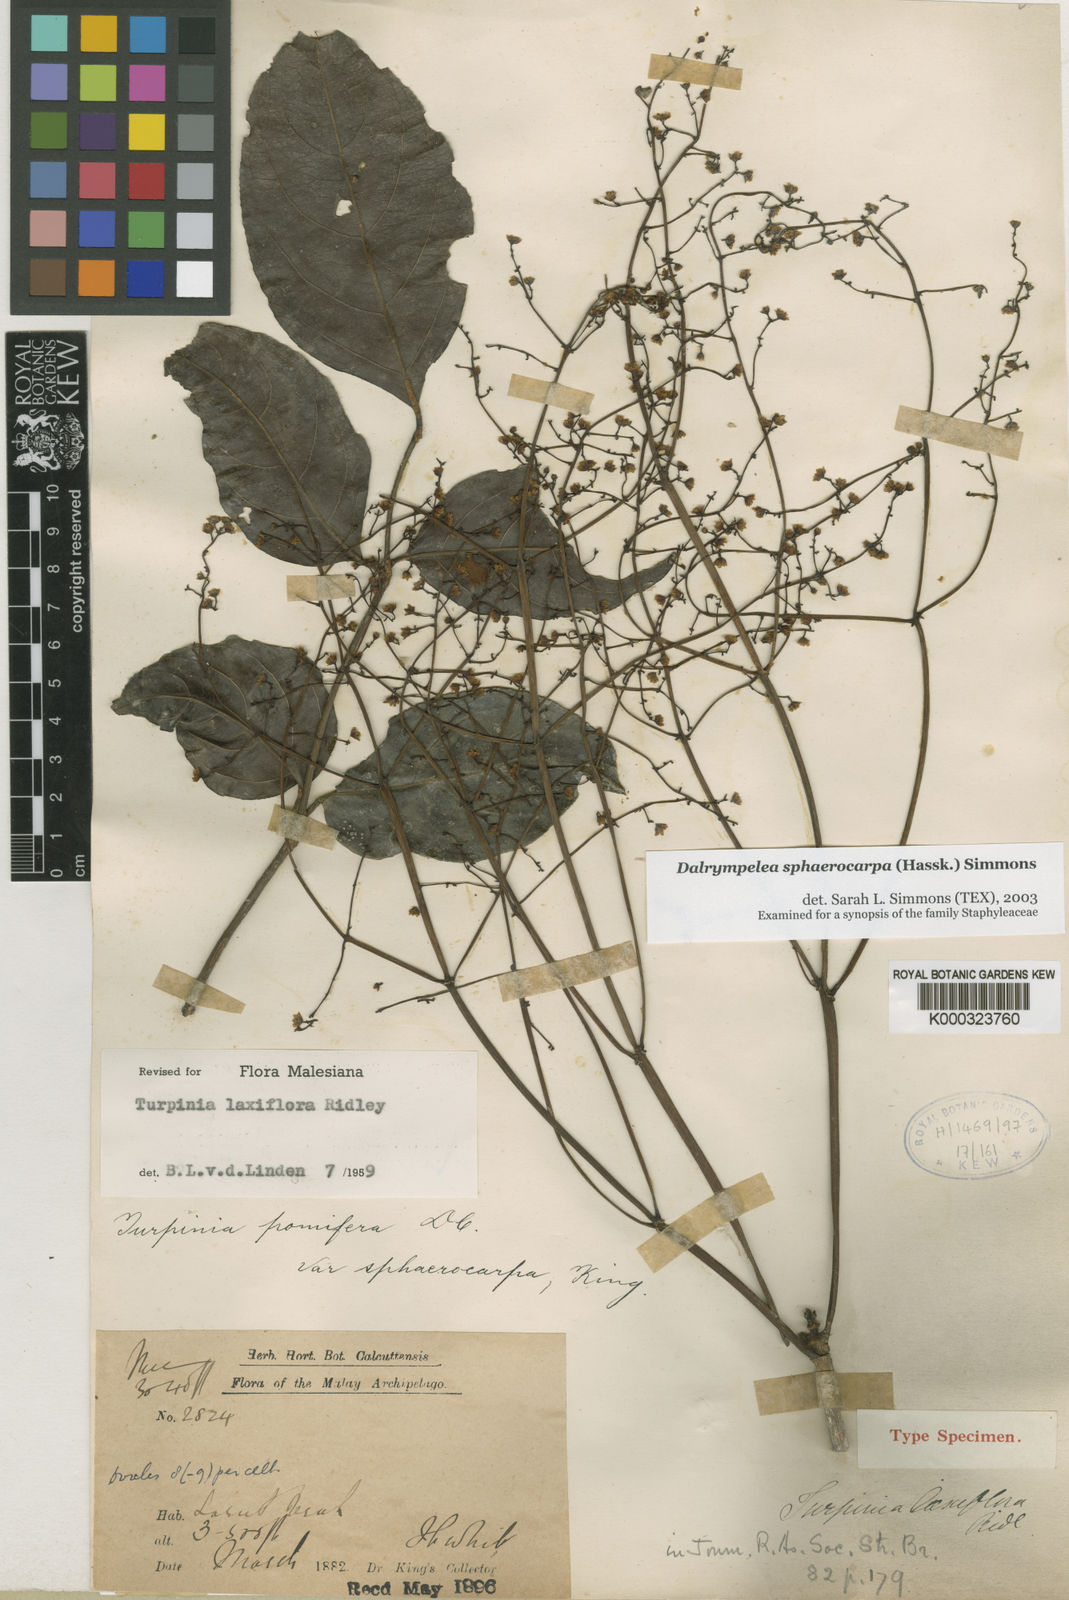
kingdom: Plantae
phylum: Tracheophyta
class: Magnoliopsida
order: Crossosomatales
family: Staphyleaceae
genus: Dalrympelea
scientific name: Dalrympelea sphaerocarpa
